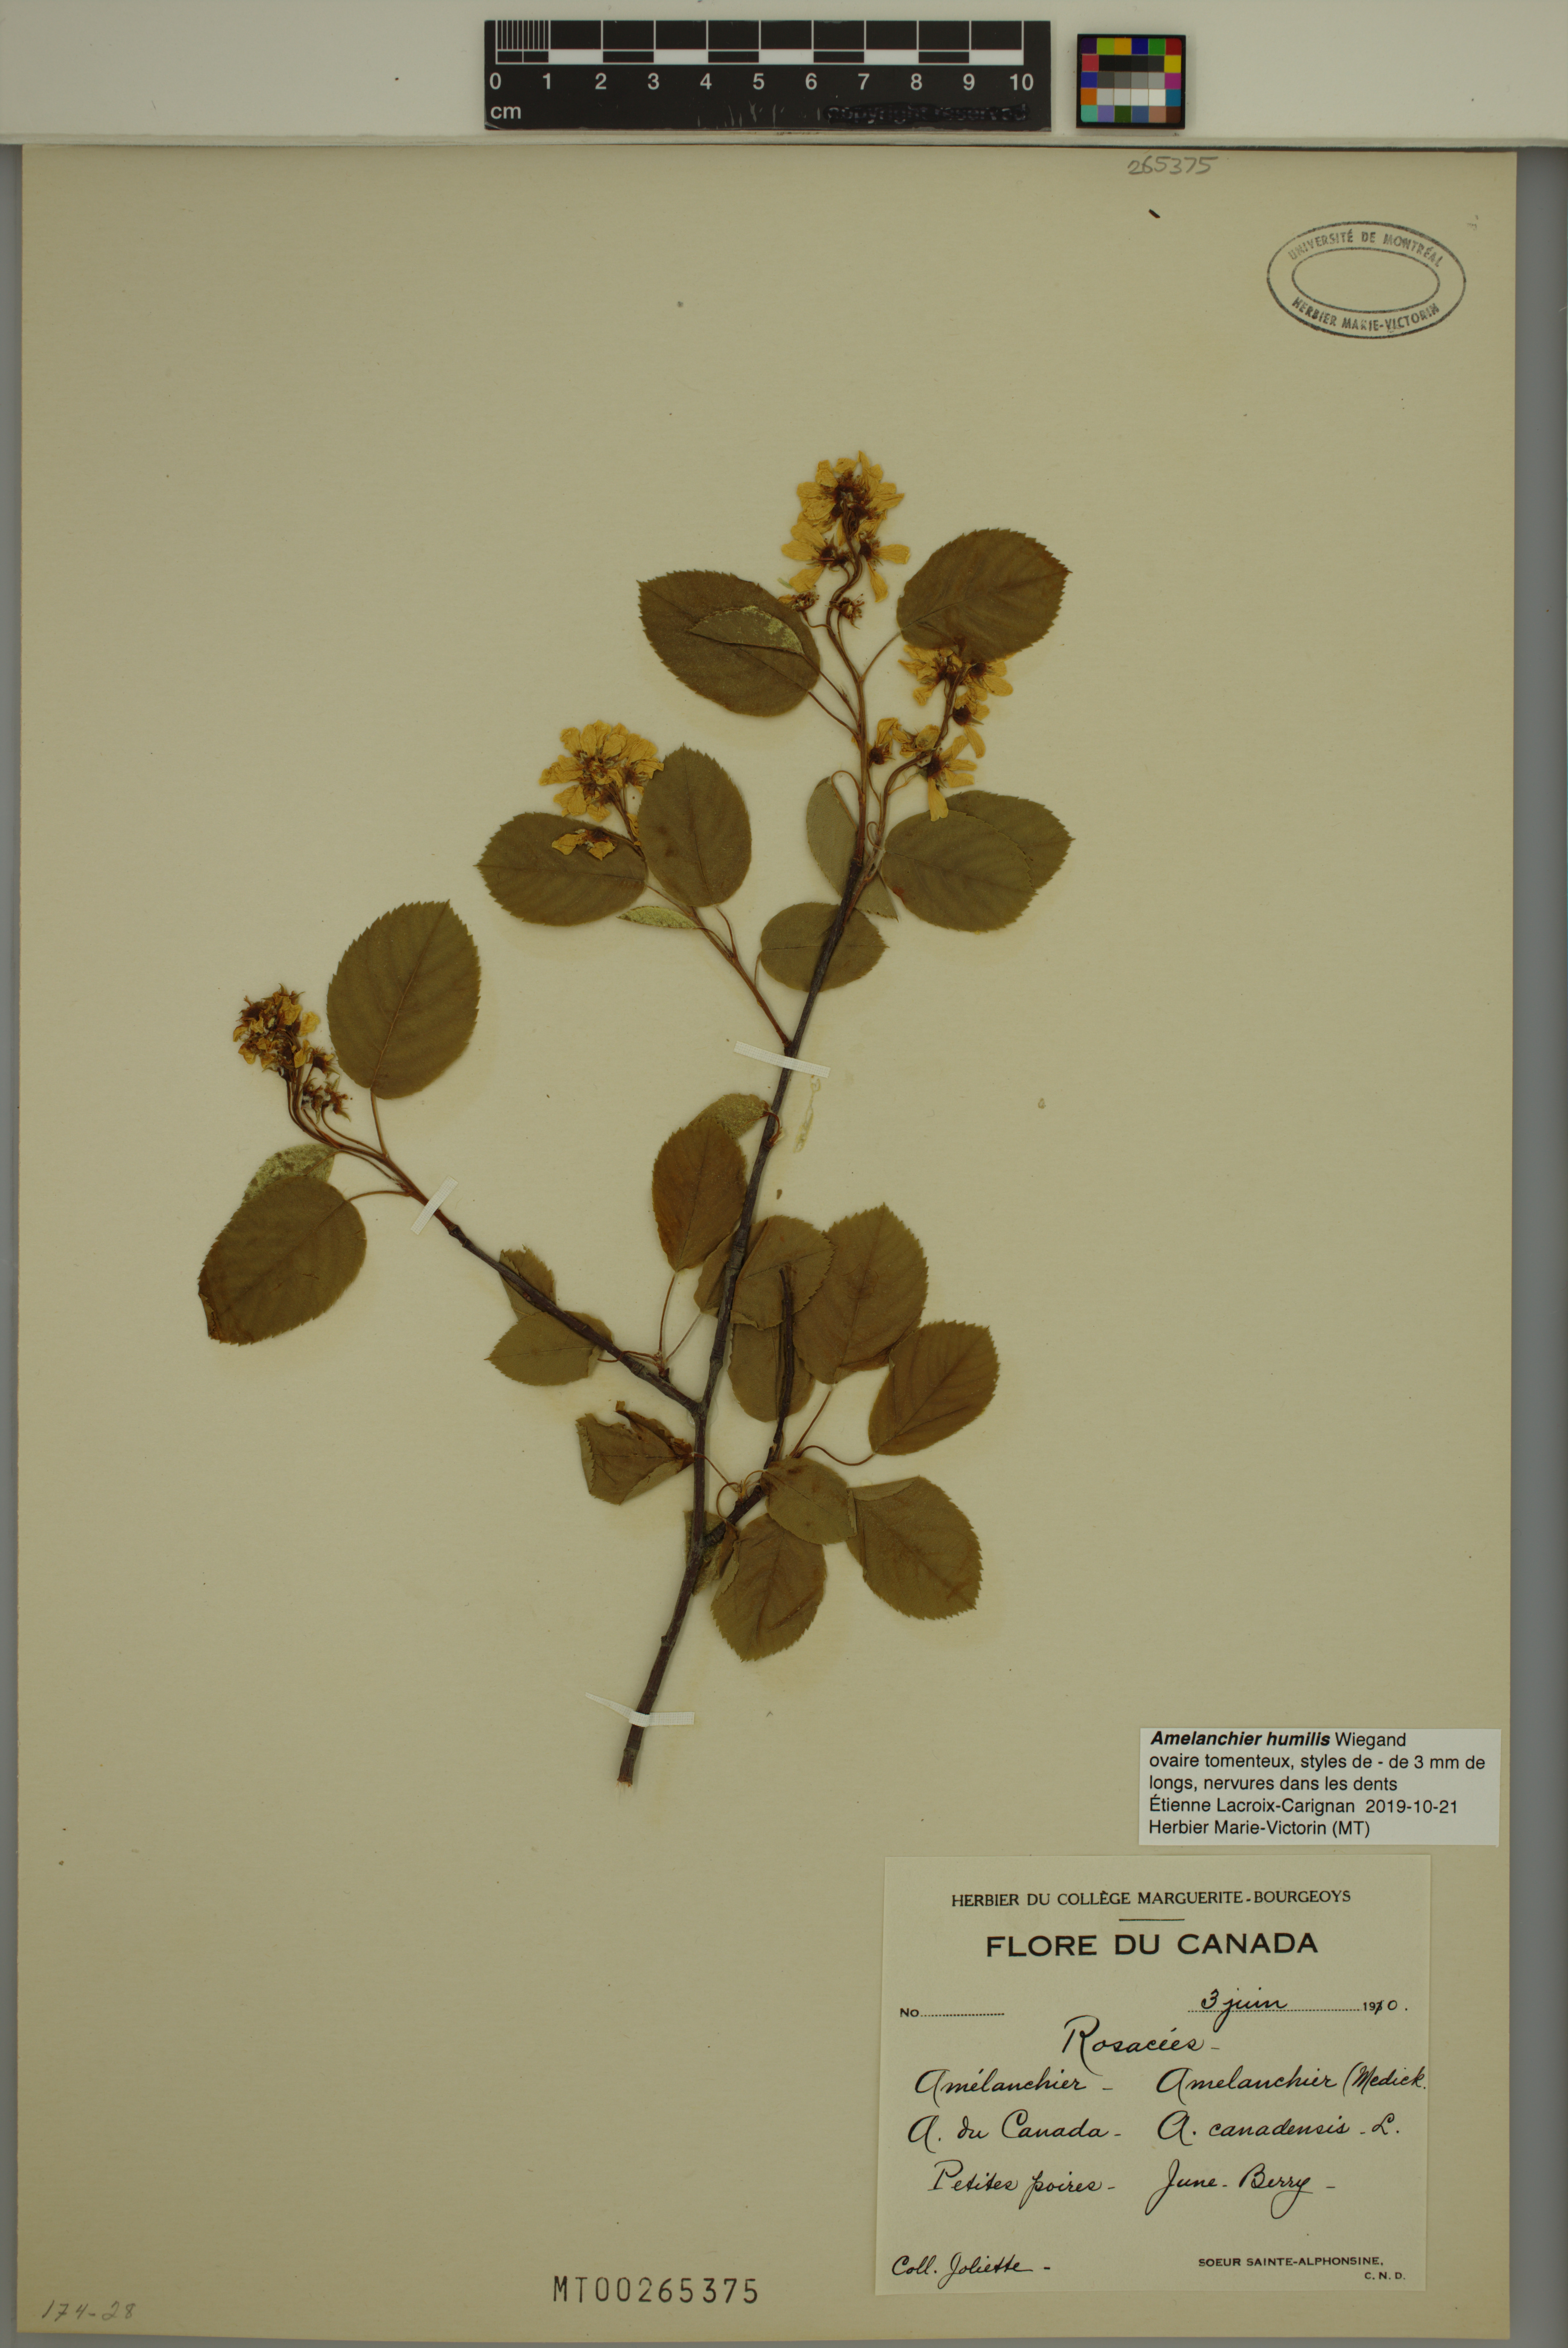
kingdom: Plantae
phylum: Tracheophyta
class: Magnoliopsida
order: Rosales
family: Rosaceae
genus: Amelanchier
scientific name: Amelanchier humilis
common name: Low juneberry
